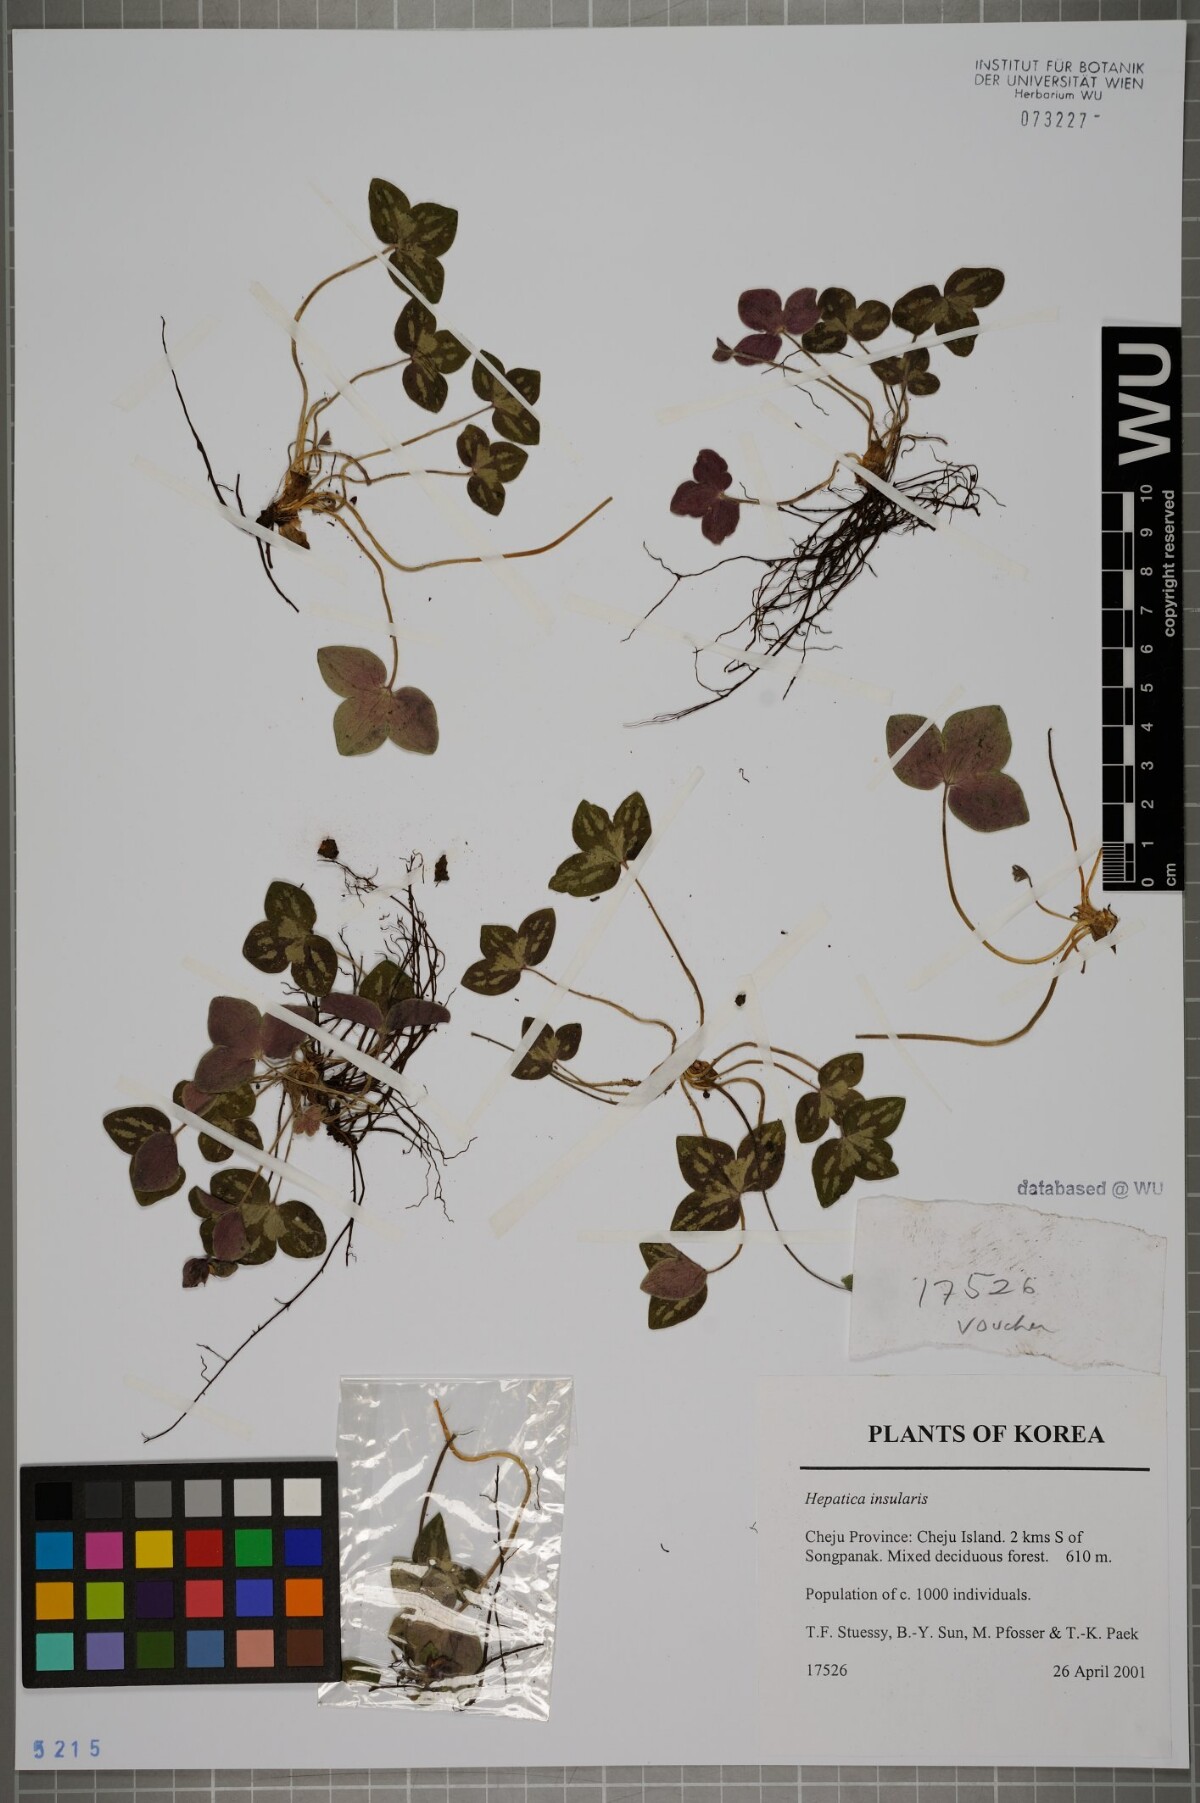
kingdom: Plantae
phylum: Tracheophyta
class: Magnoliopsida
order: Ranunculales
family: Ranunculaceae
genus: Hepatica
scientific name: Hepatica insularis
